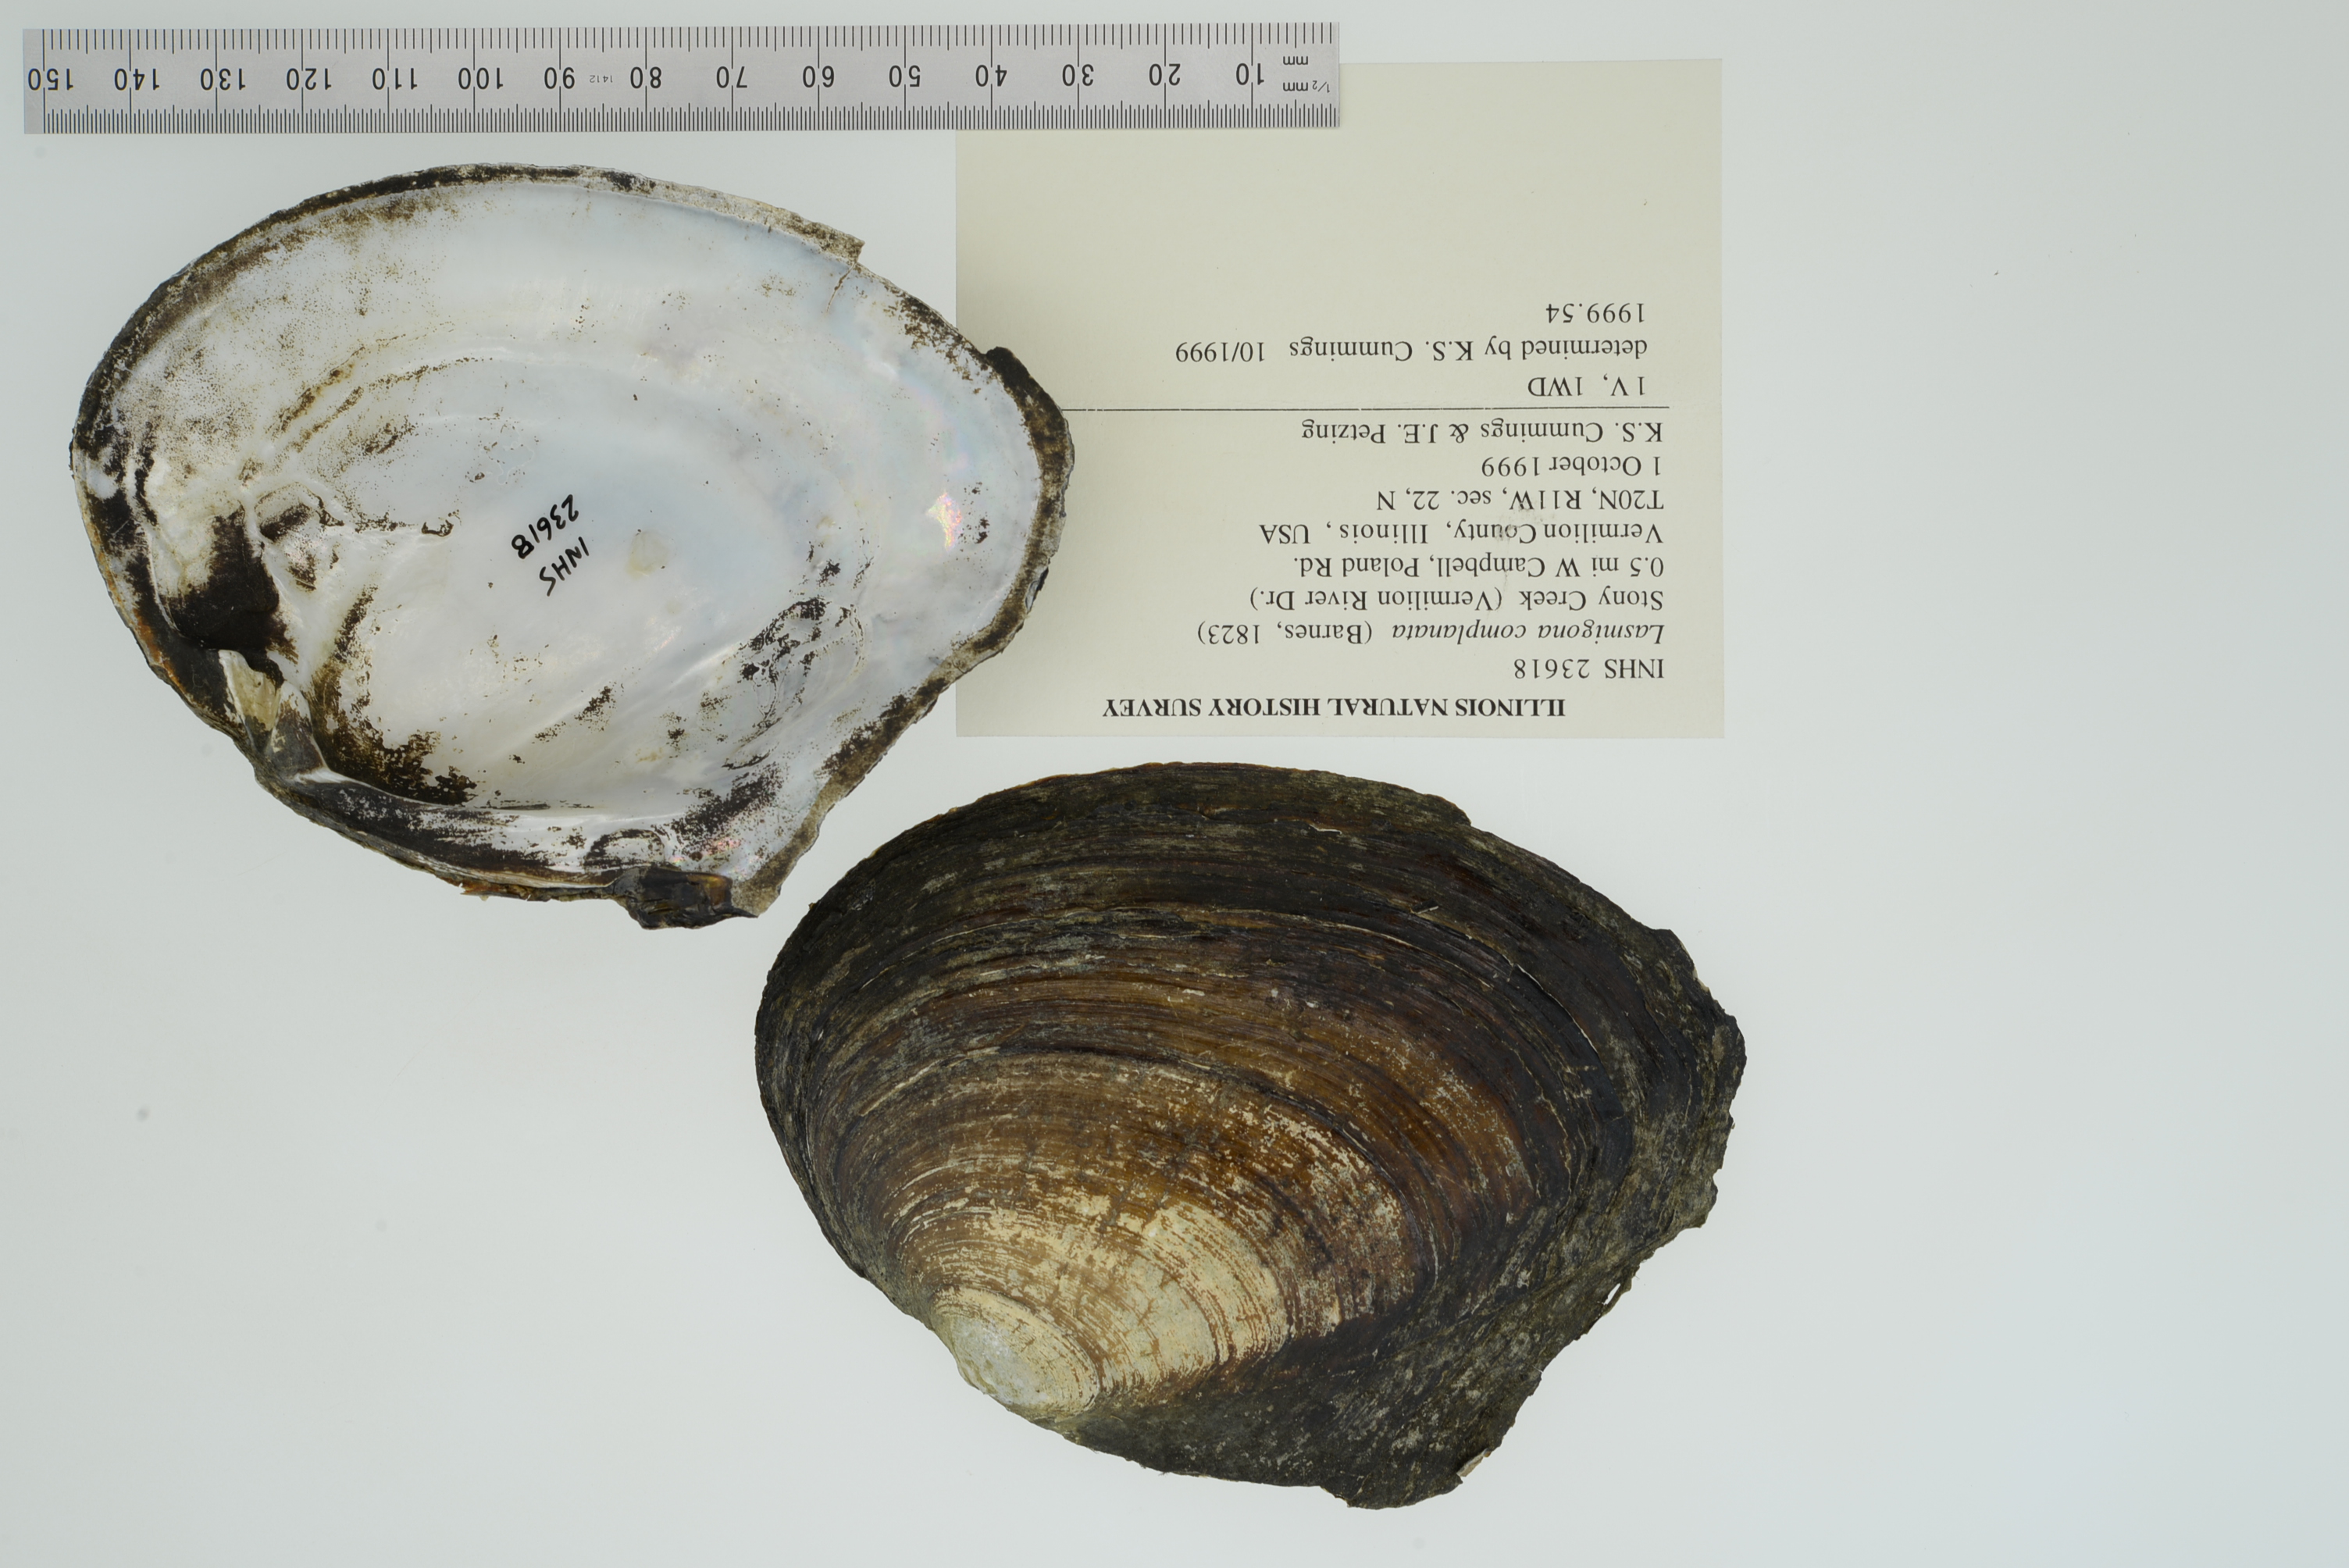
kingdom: Animalia
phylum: Mollusca
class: Bivalvia
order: Unionida
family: Unionidae
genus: Lasmigona
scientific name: Lasmigona complanata
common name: White heelsplitter
